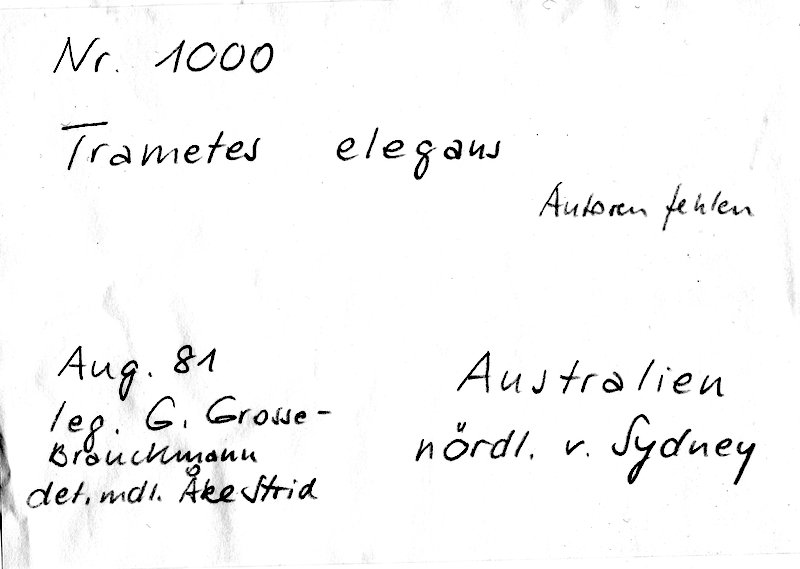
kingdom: Fungi
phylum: Basidiomycota
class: Agaricomycetes
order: Polyporales
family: Polyporaceae
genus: Trametes
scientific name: Trametes elegans
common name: White maze polypore
